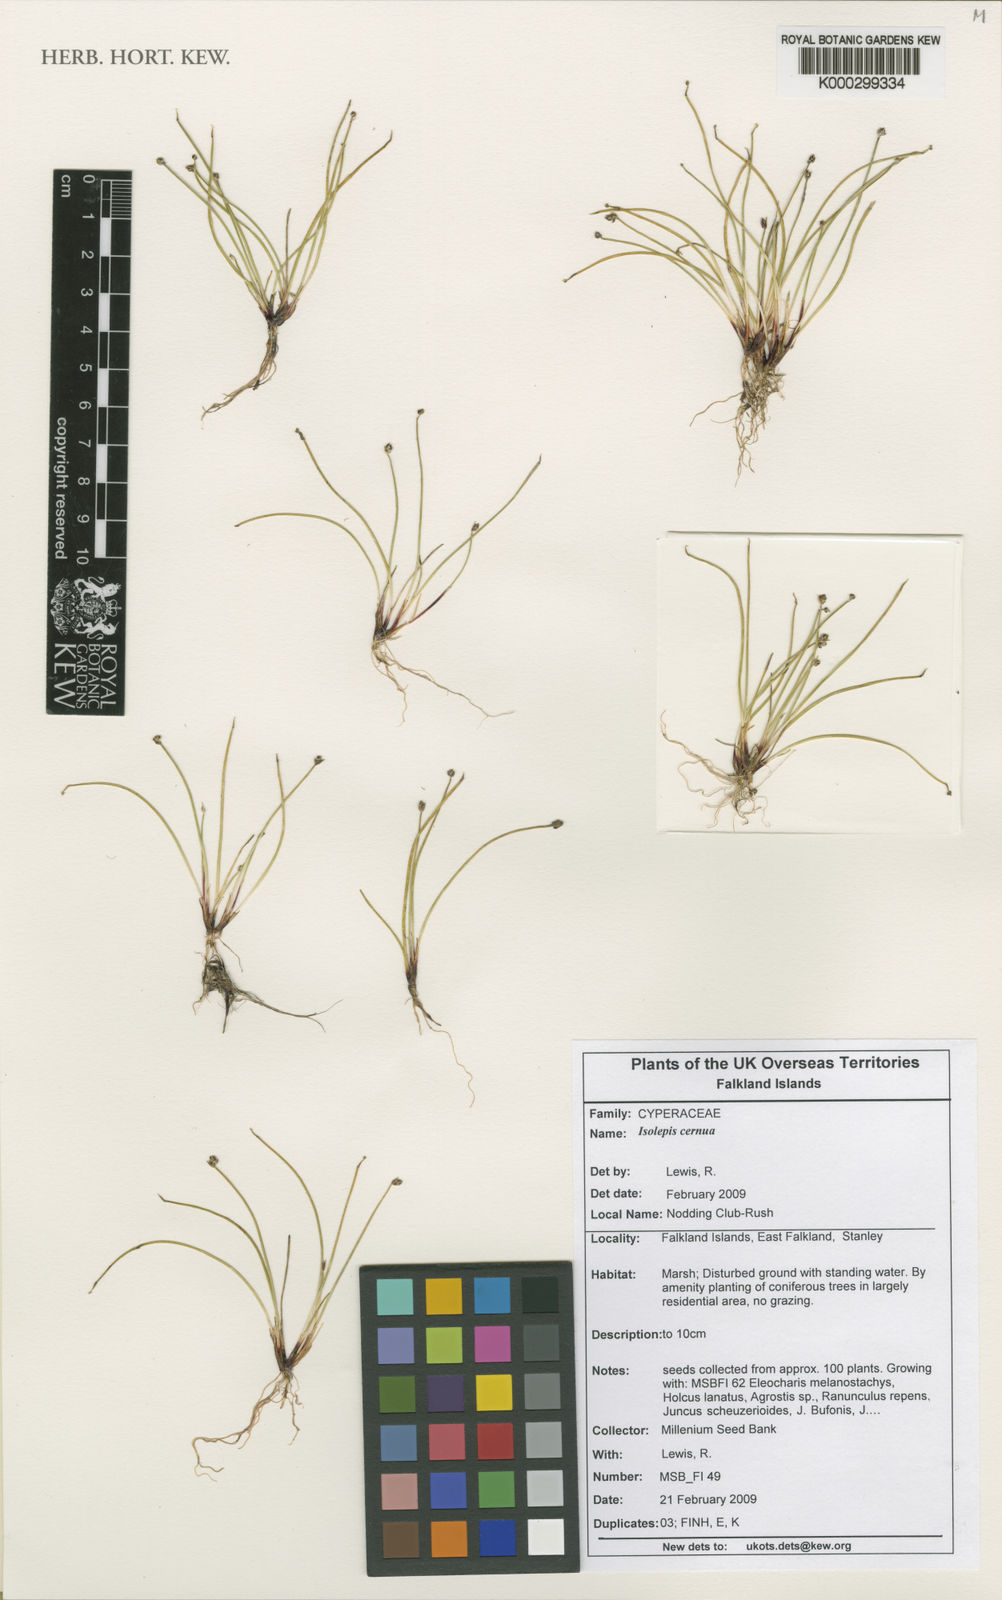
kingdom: Plantae
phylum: Tracheophyta
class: Liliopsida
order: Poales
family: Cyperaceae
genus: Isolepis
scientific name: Isolepis cernua
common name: Slender club-rush
